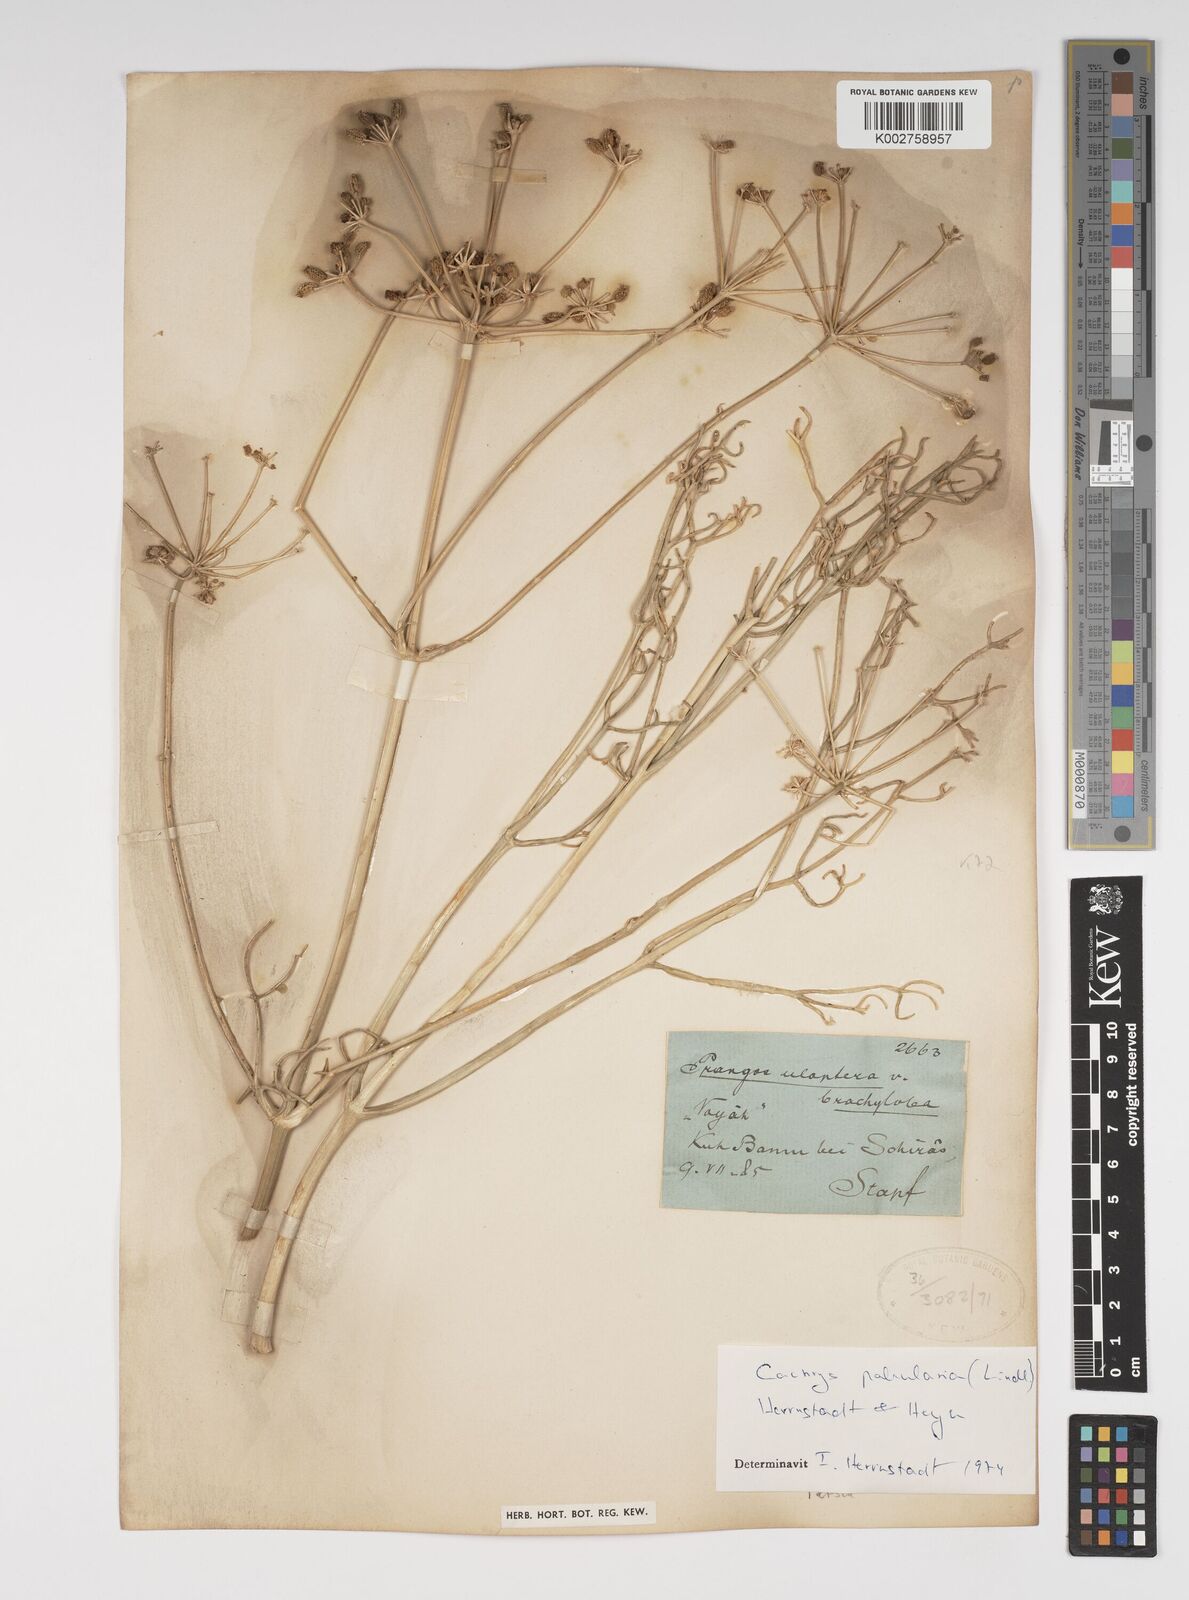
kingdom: Plantae
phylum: Tracheophyta
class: Magnoliopsida
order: Apiales
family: Apiaceae
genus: Prangos
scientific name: Prangos pabularia
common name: Yugan
